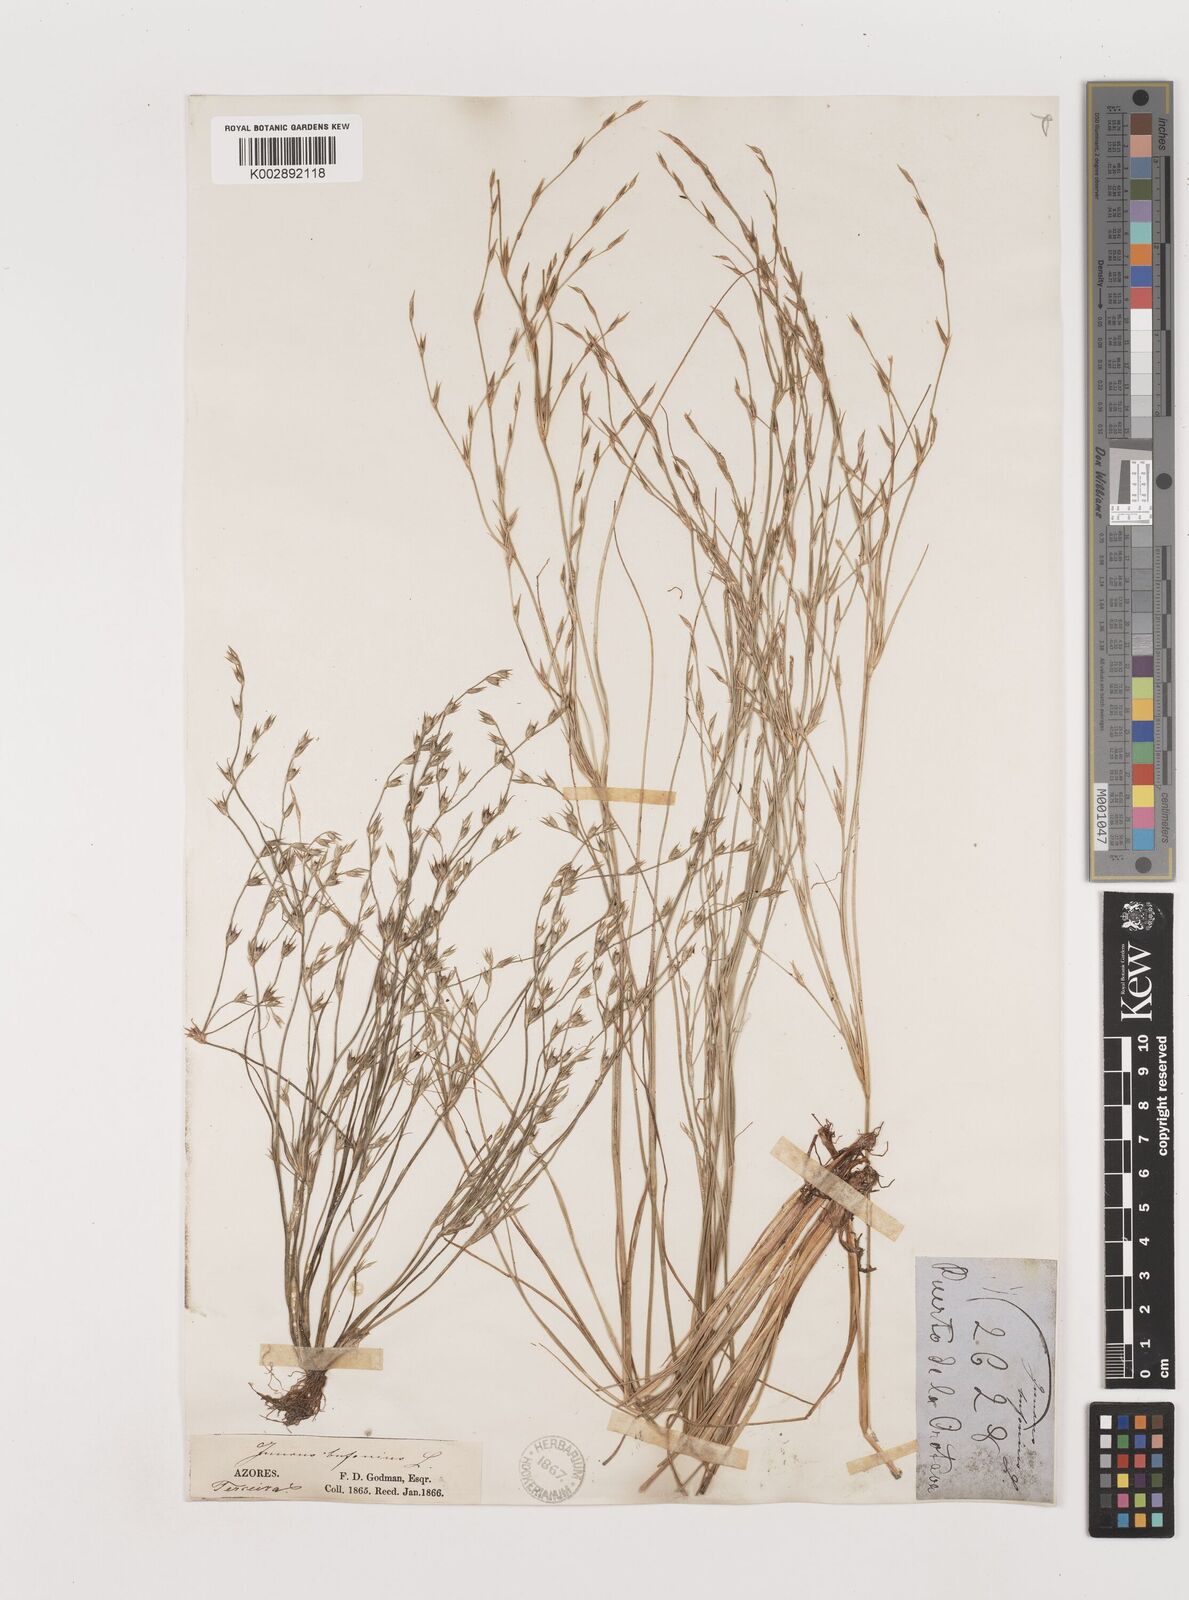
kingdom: Plantae
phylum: Tracheophyta
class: Liliopsida
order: Poales
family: Juncaceae
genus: Juncus
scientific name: Juncus bufonius
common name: Toad rush
